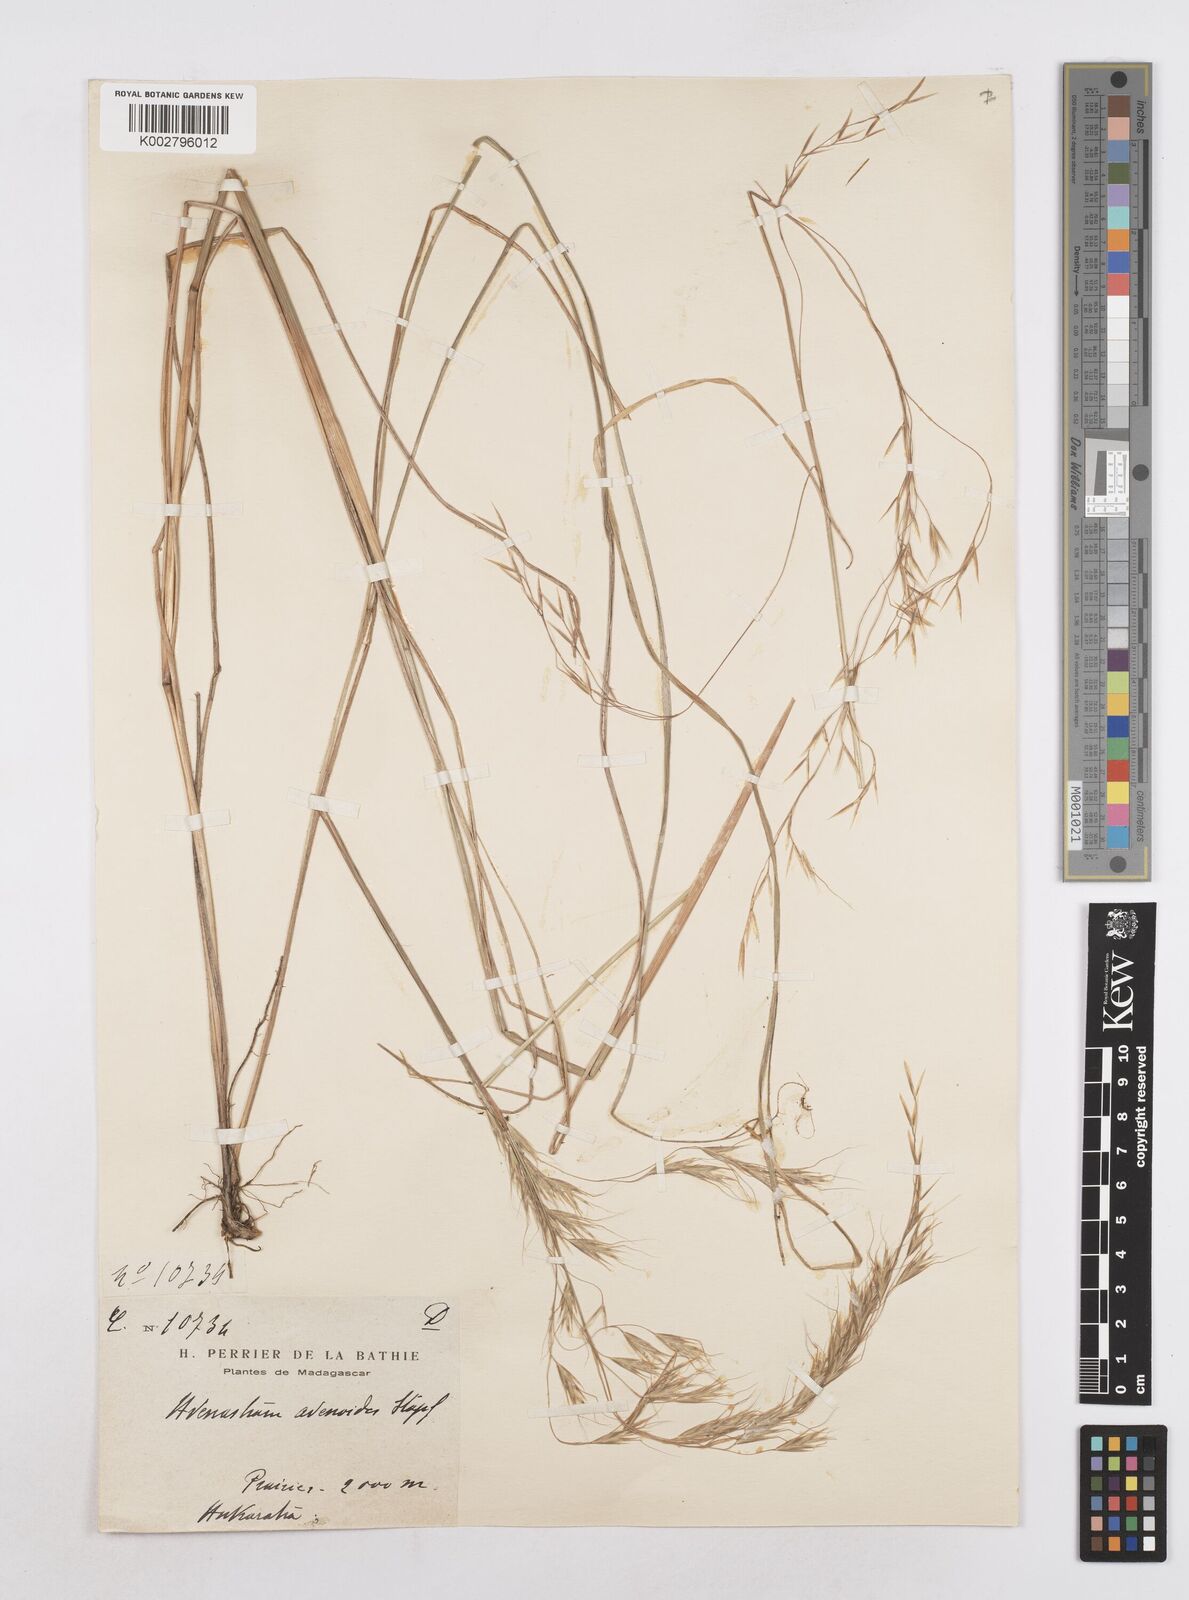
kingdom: Plantae
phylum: Tracheophyta
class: Liliopsida
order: Poales
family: Poaceae
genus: Trisetopsis
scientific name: Trisetopsis elongata
